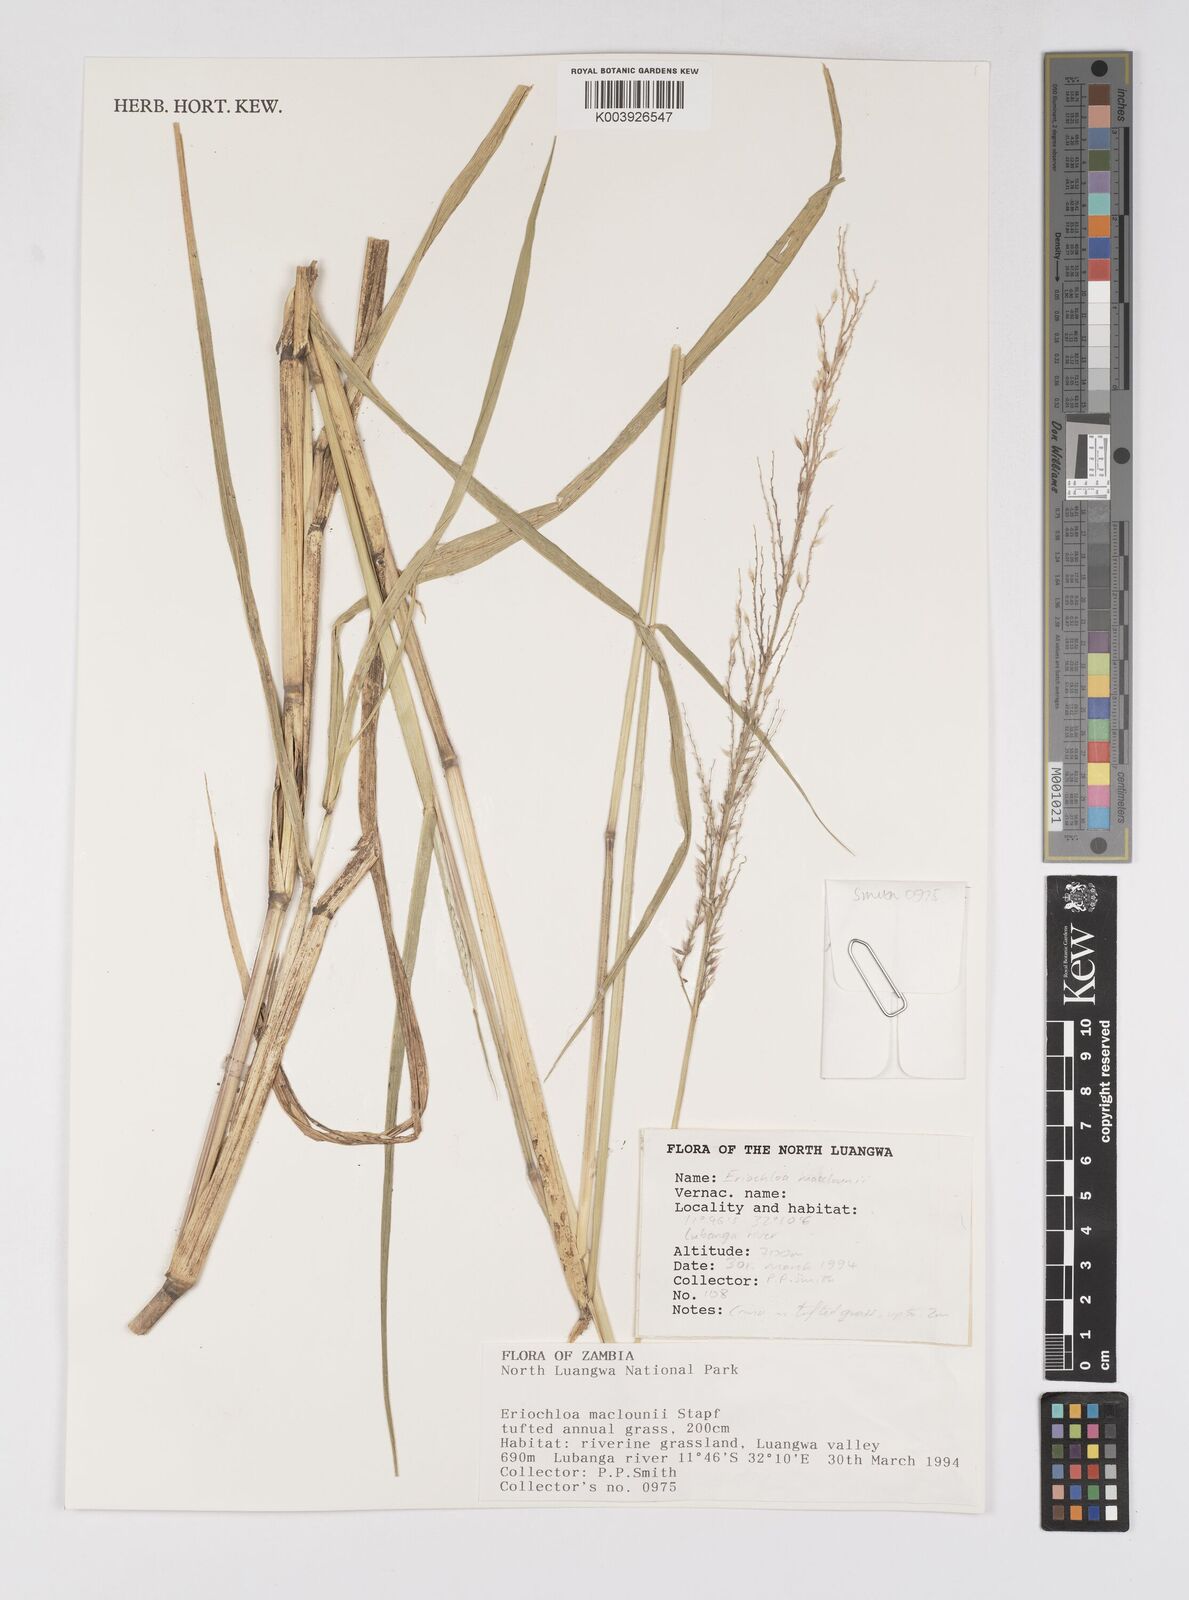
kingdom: Plantae
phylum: Tracheophyta
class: Liliopsida
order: Poales
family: Poaceae
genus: Eriochloa
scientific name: Eriochloa macclounii
